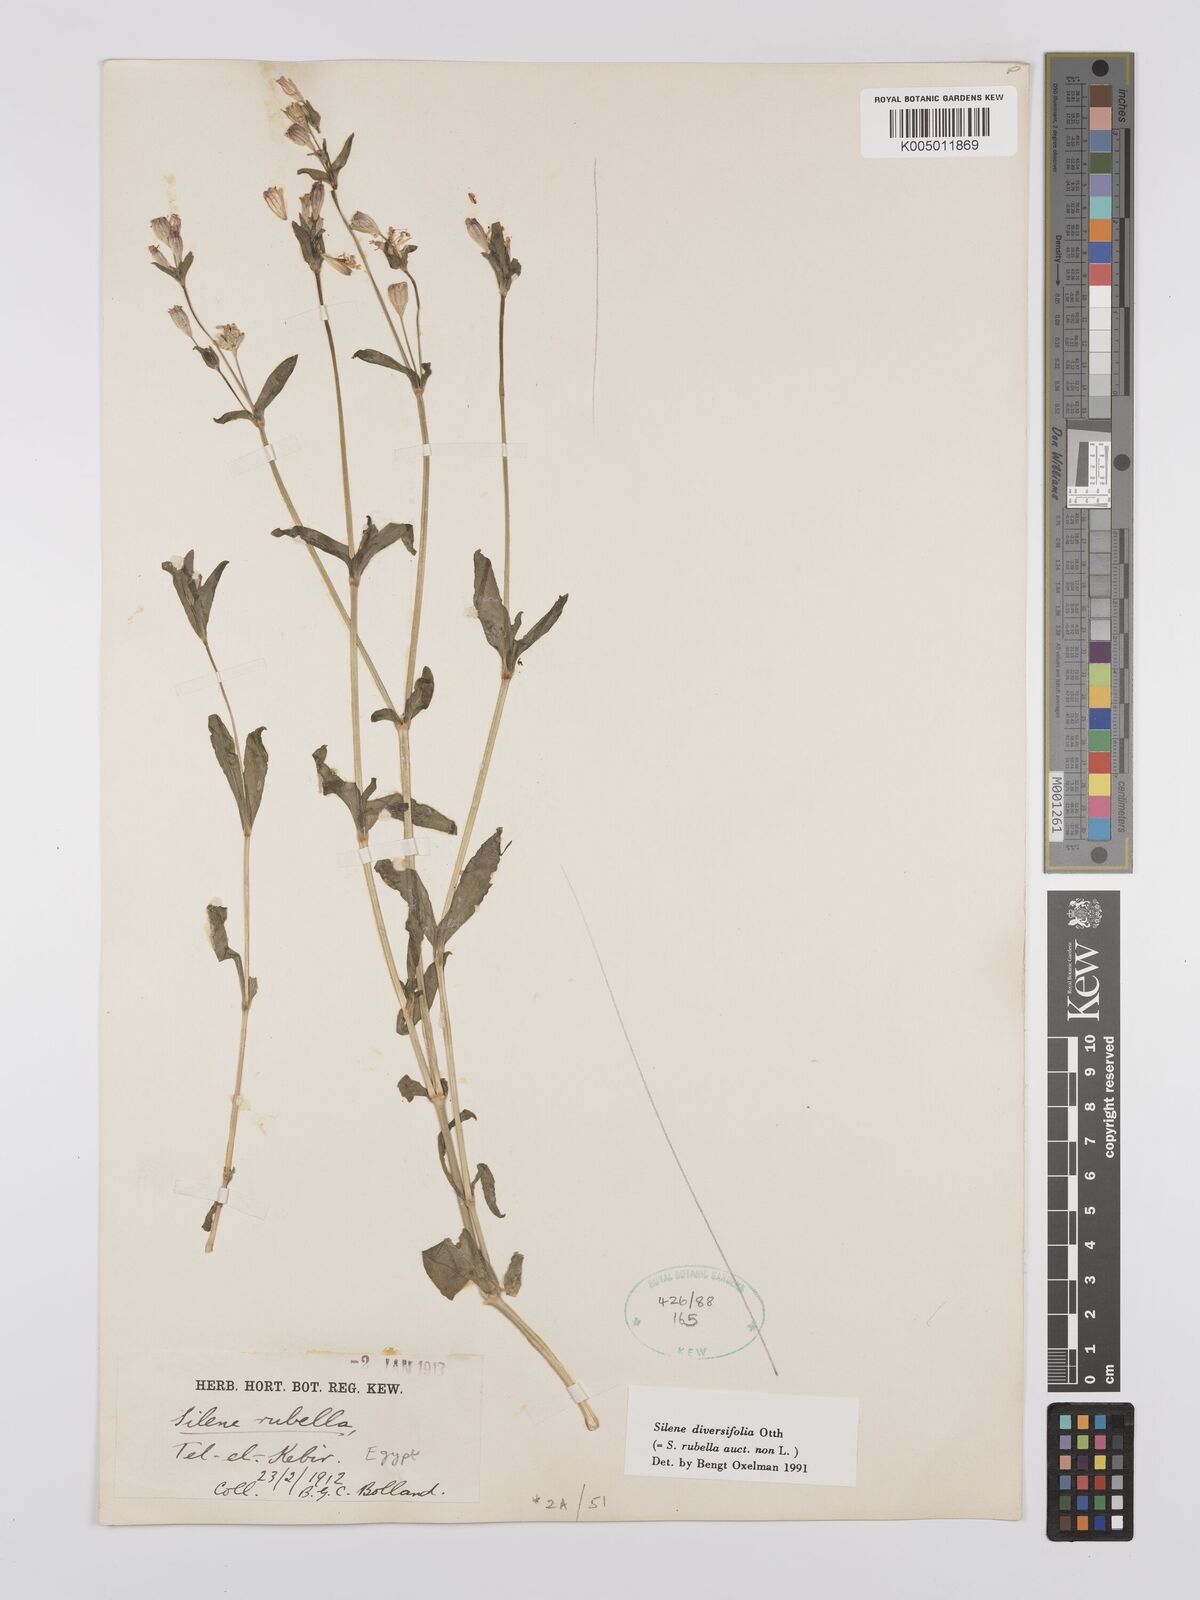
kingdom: Plantae
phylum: Tracheophyta
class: Magnoliopsida
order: Caryophyllales
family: Caryophyllaceae
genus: Silene
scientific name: Silene rubella
